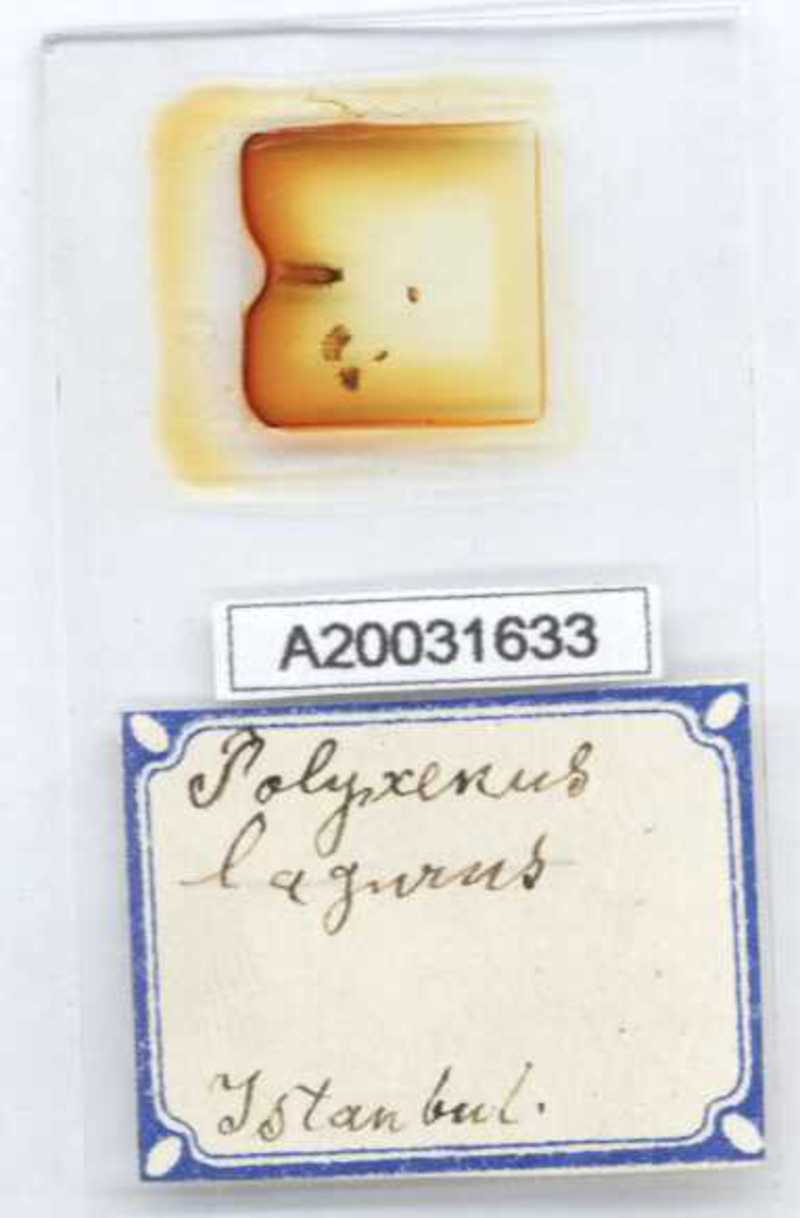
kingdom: Animalia
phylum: Arthropoda
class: Diplopoda
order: Polyxenida
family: Polyxenidae
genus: Polyxenus
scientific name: Polyxenus lagurus
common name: Bristly millipede
